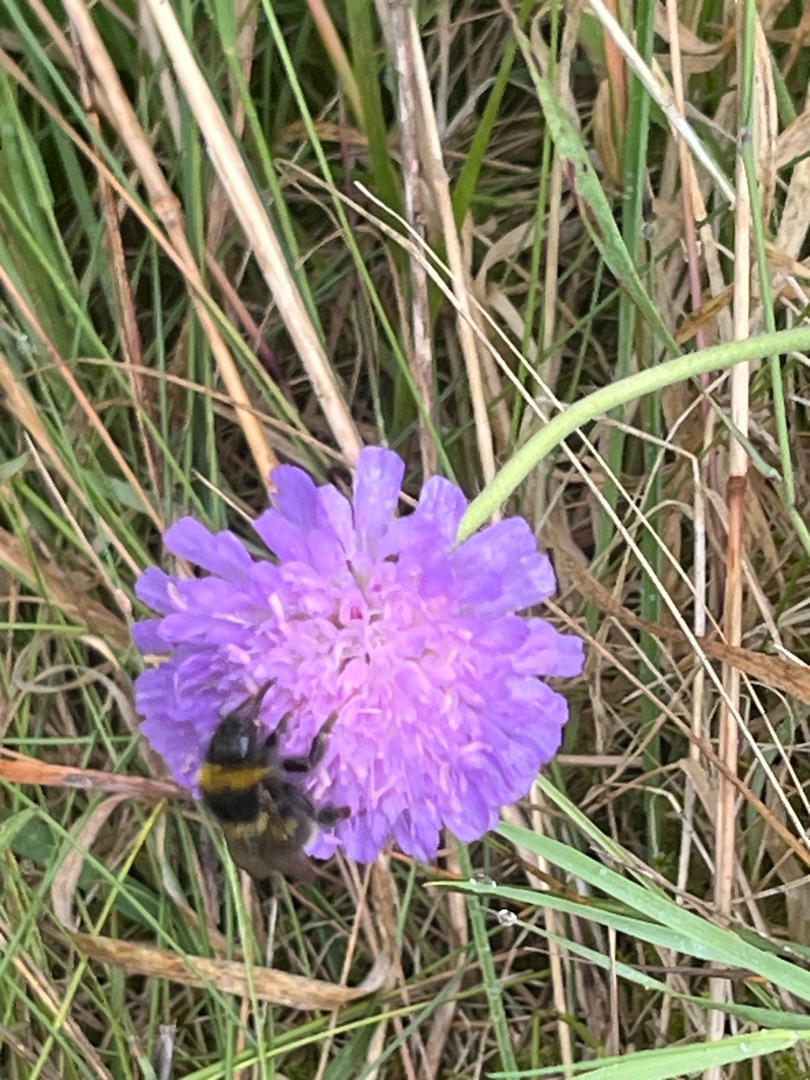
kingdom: Plantae
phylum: Tracheophyta
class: Magnoliopsida
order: Dipsacales
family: Caprifoliaceae
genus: Knautia
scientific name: Knautia arvensis
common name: Blåhat
